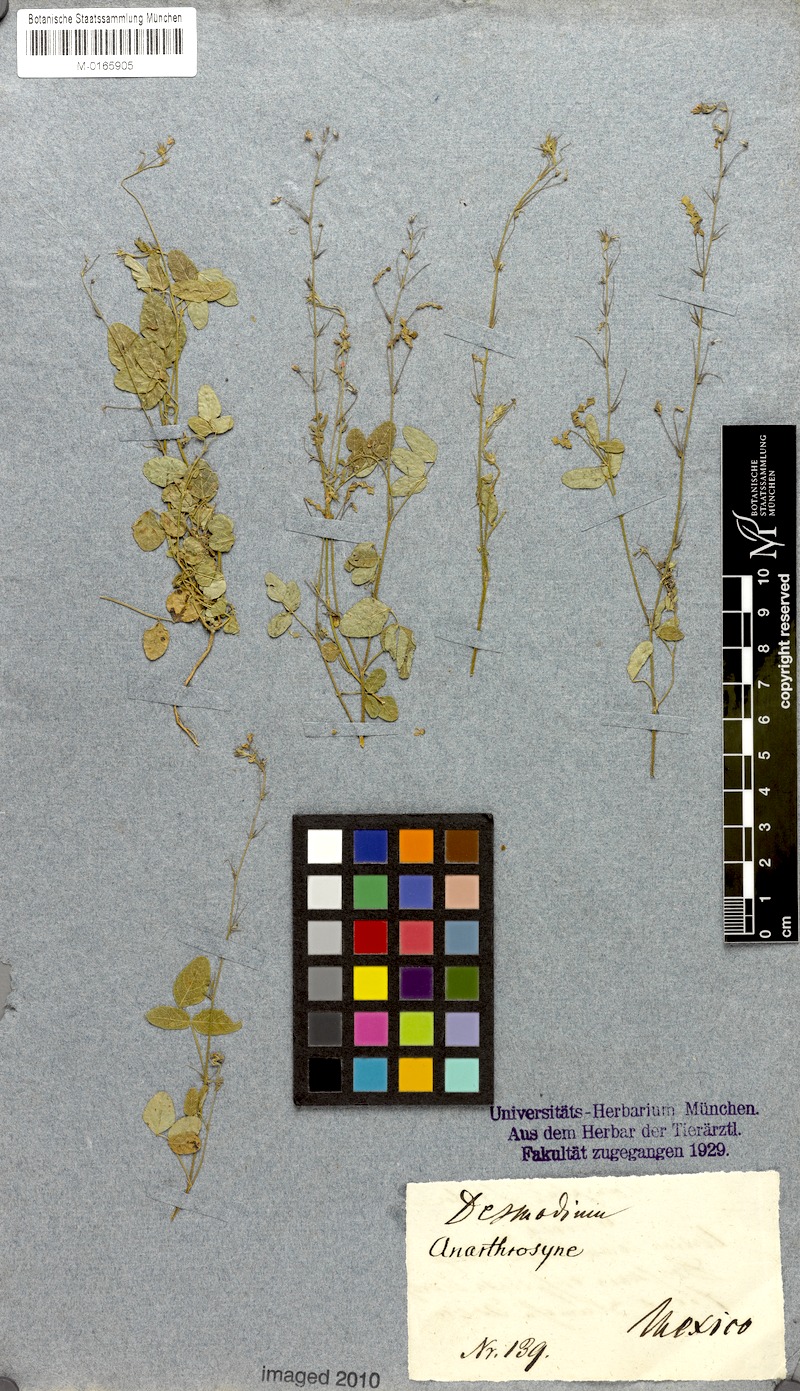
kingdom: Plantae
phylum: Tracheophyta
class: Magnoliopsida
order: Fabales
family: Fabaceae
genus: Desmodium
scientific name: Desmodium
